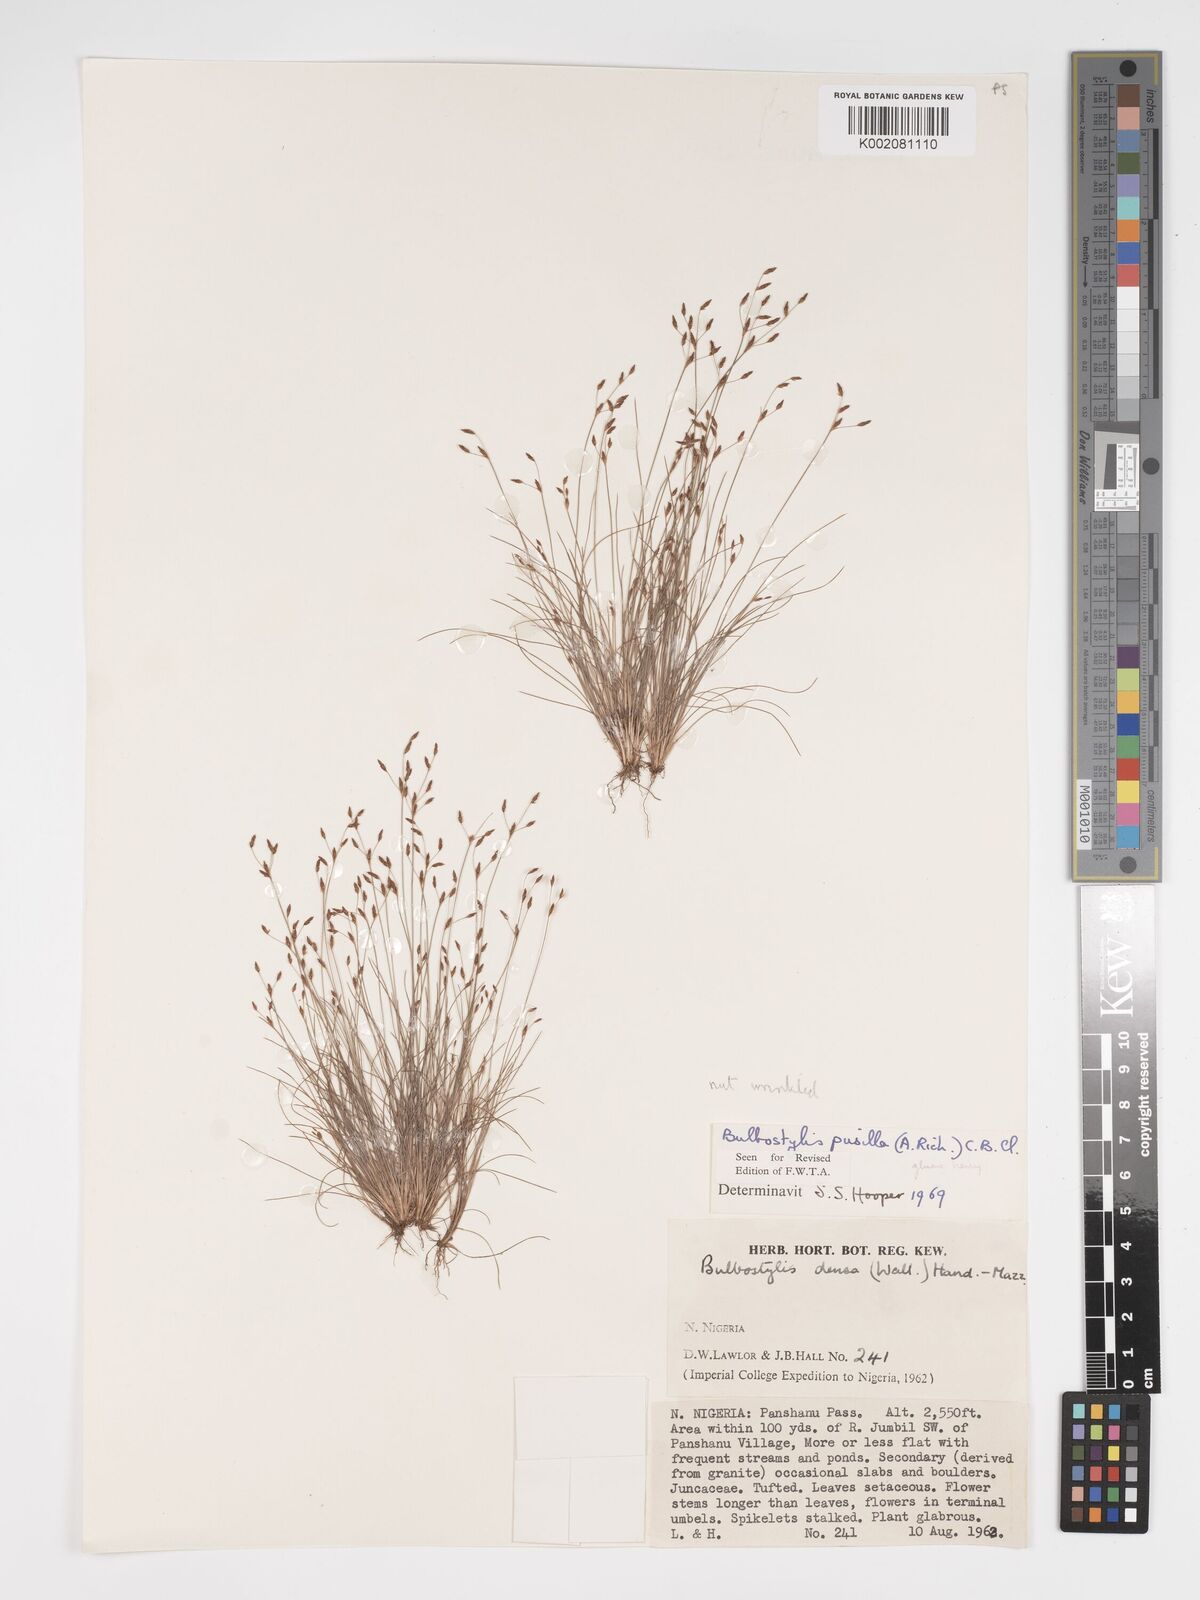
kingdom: Plantae
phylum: Tracheophyta
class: Liliopsida
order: Poales
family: Cyperaceae
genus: Bulbostylis
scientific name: Bulbostylis pusilla
